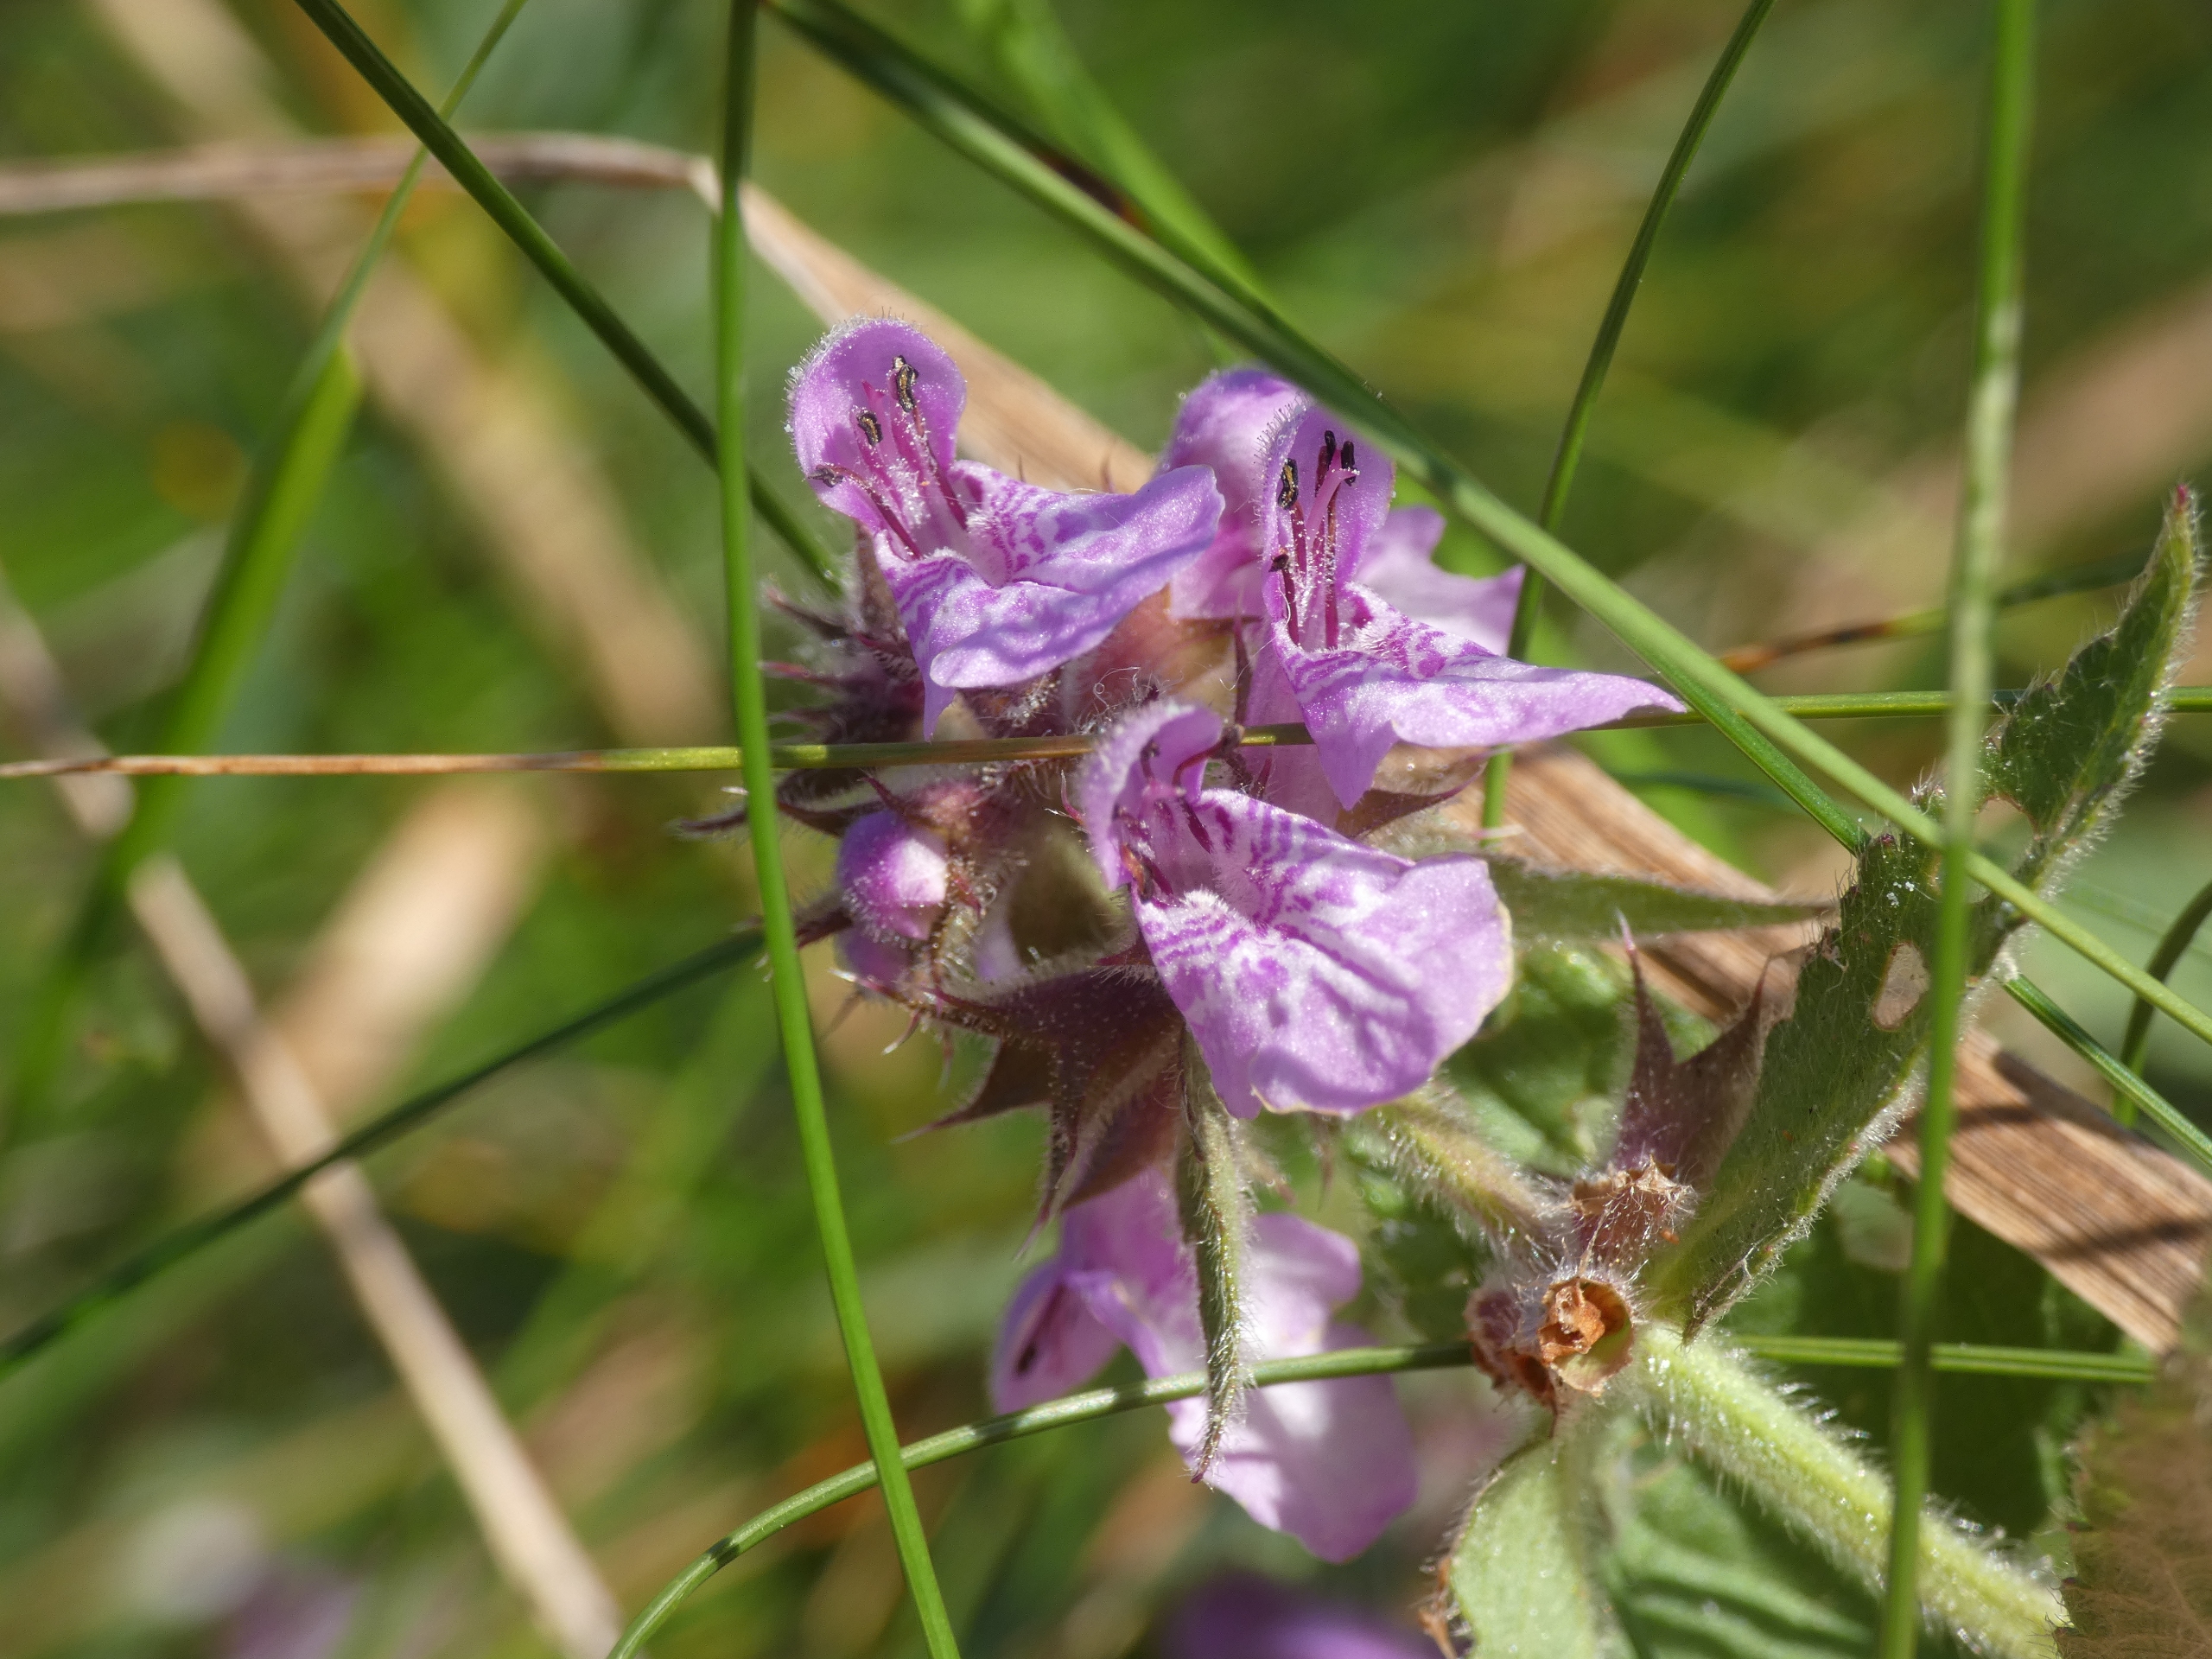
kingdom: Plantae
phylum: Tracheophyta
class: Magnoliopsida
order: Lamiales
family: Lamiaceae
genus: Stachys
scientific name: Stachys palustris
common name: Kær-galtetand
